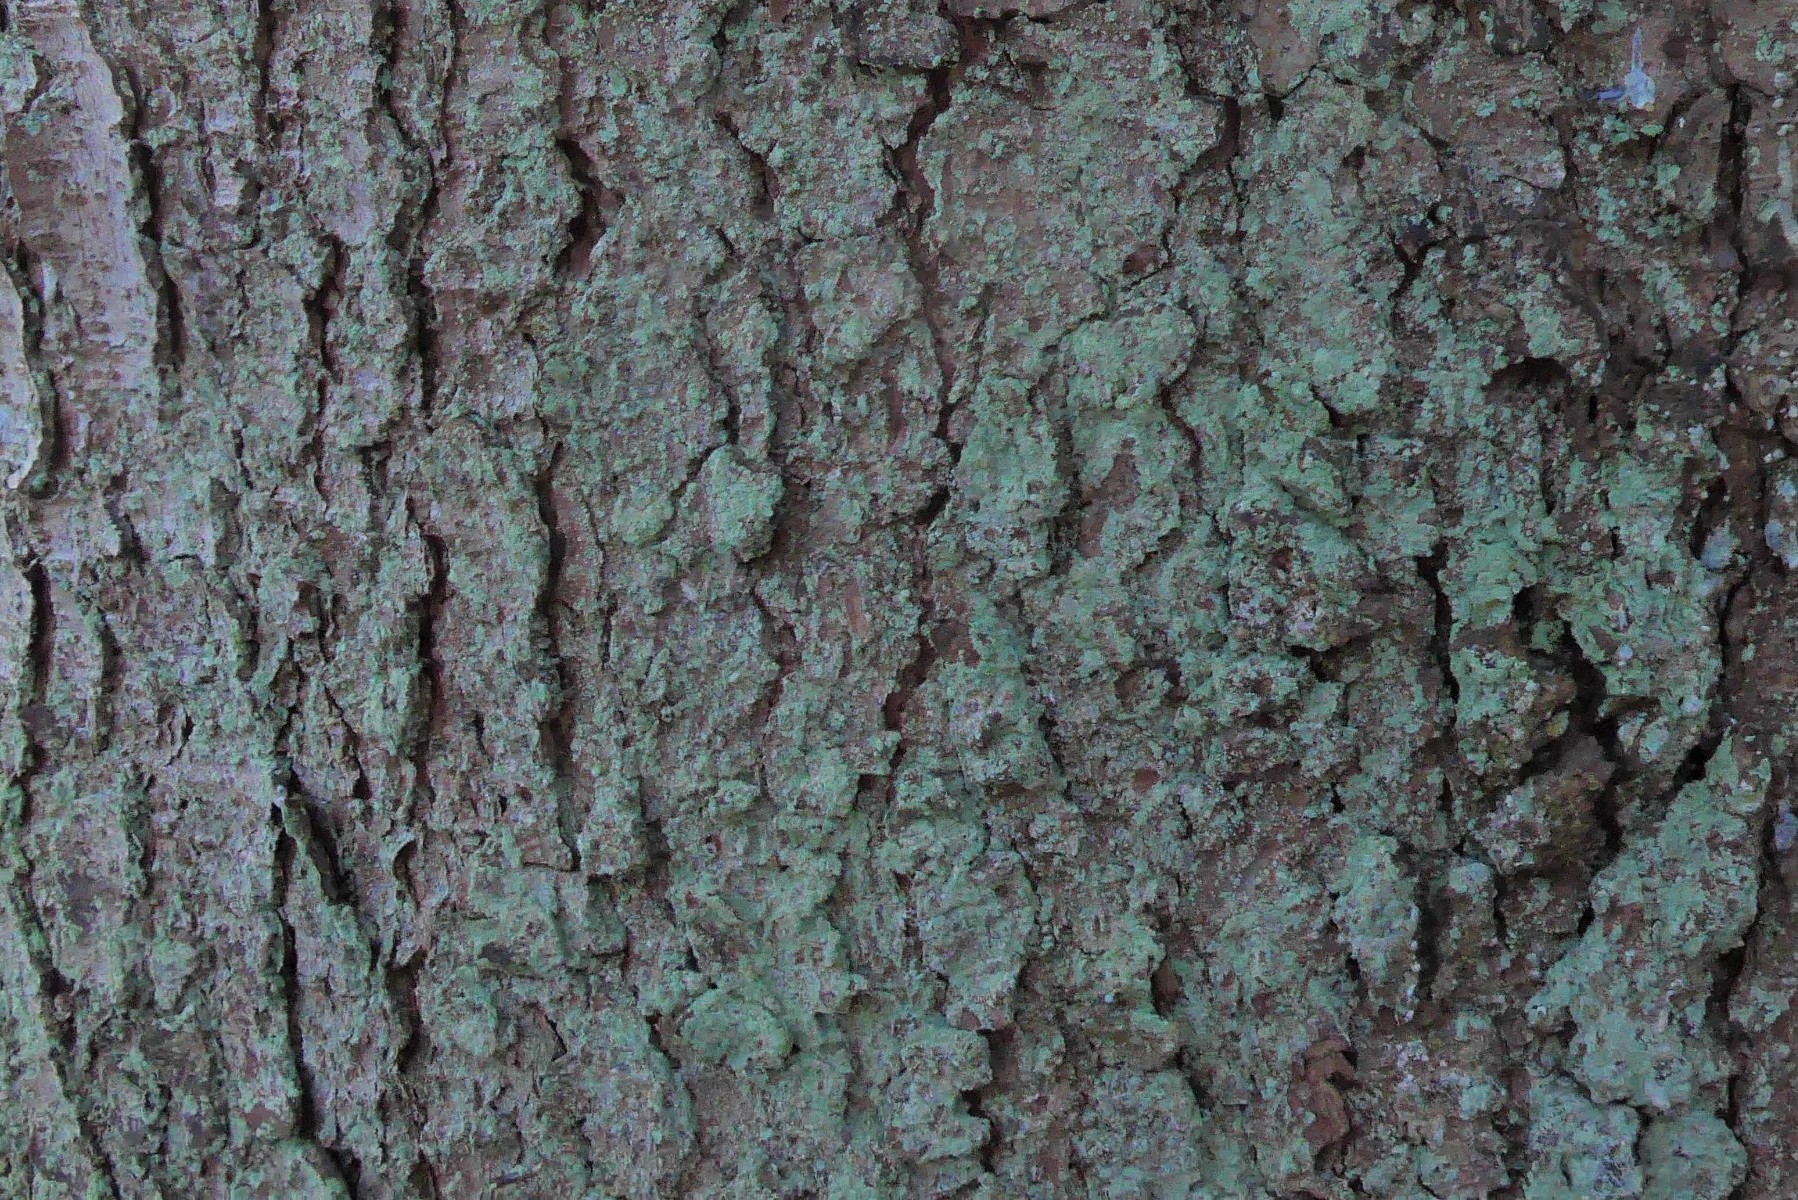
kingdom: Fungi
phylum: Ascomycota
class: Lecanoromycetes
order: Lecanorales
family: Stereocaulaceae
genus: Lepraria
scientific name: Lepraria incana
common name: almindelig støvlav
